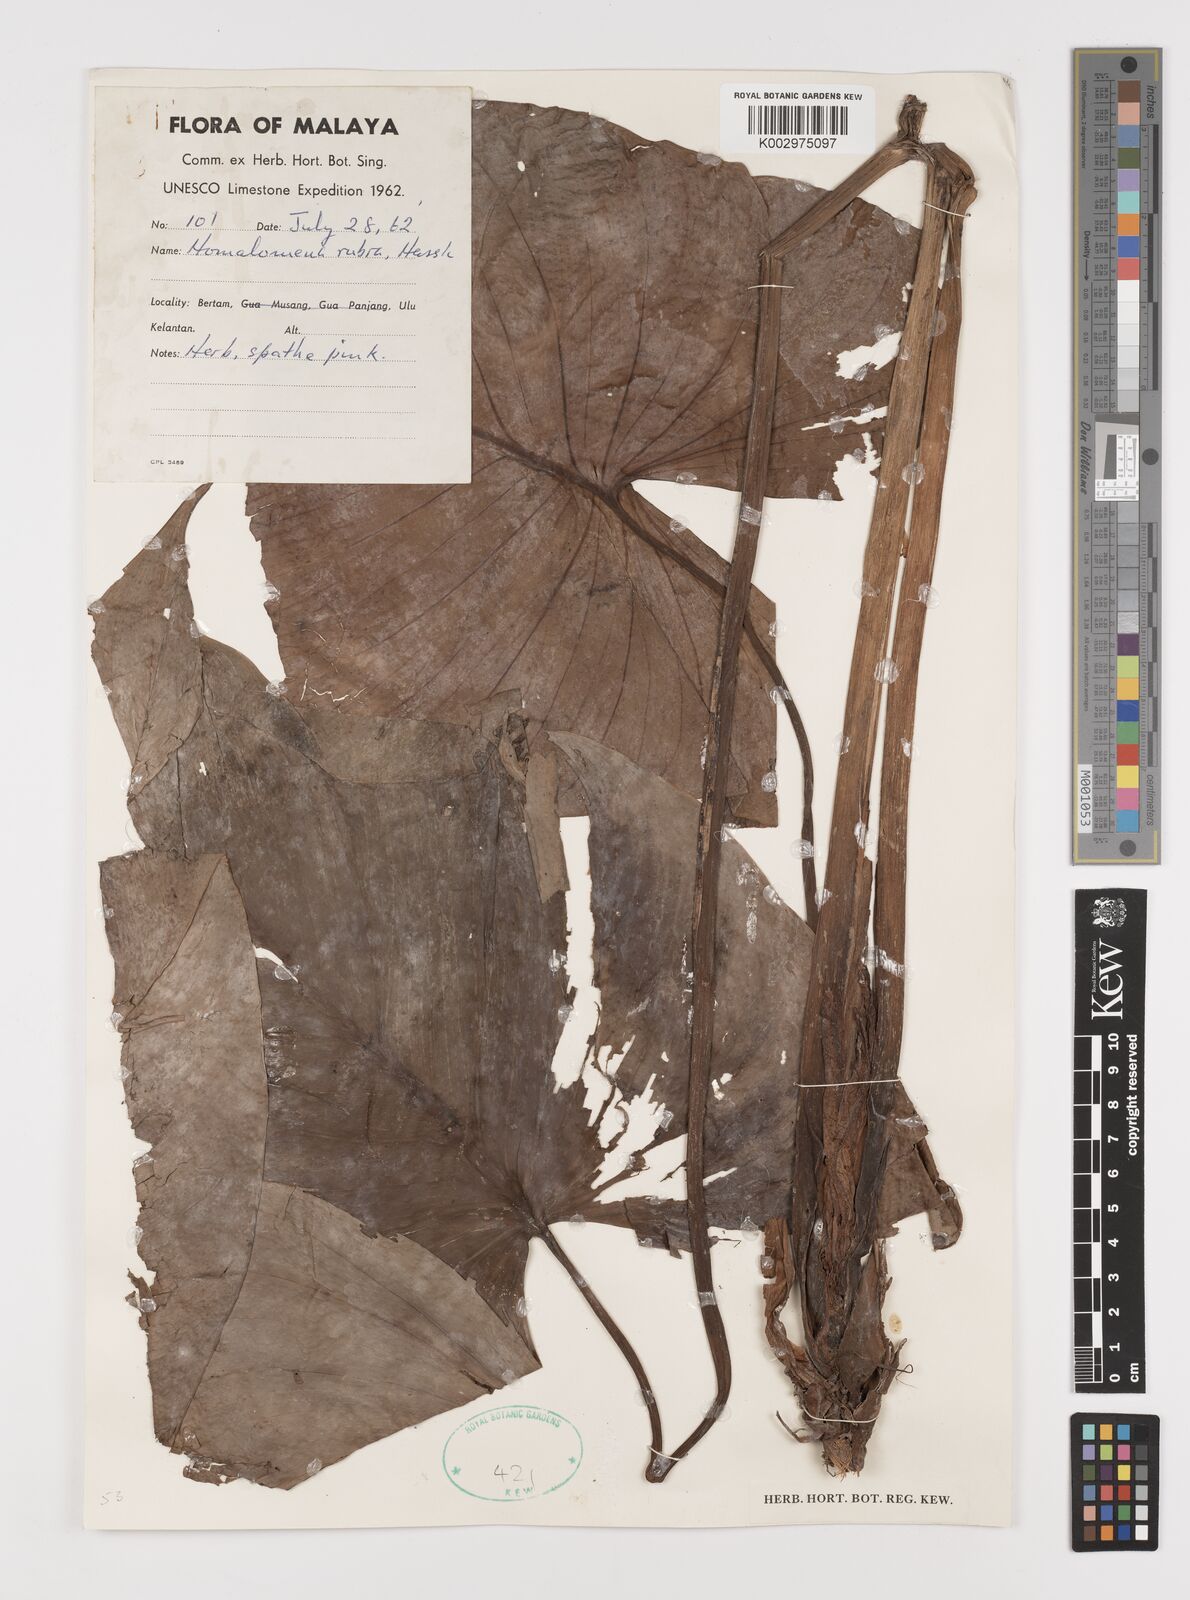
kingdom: Plantae
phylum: Tracheophyta
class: Liliopsida
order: Alismatales
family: Araceae
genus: Homalomena
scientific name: Homalomena pendula
